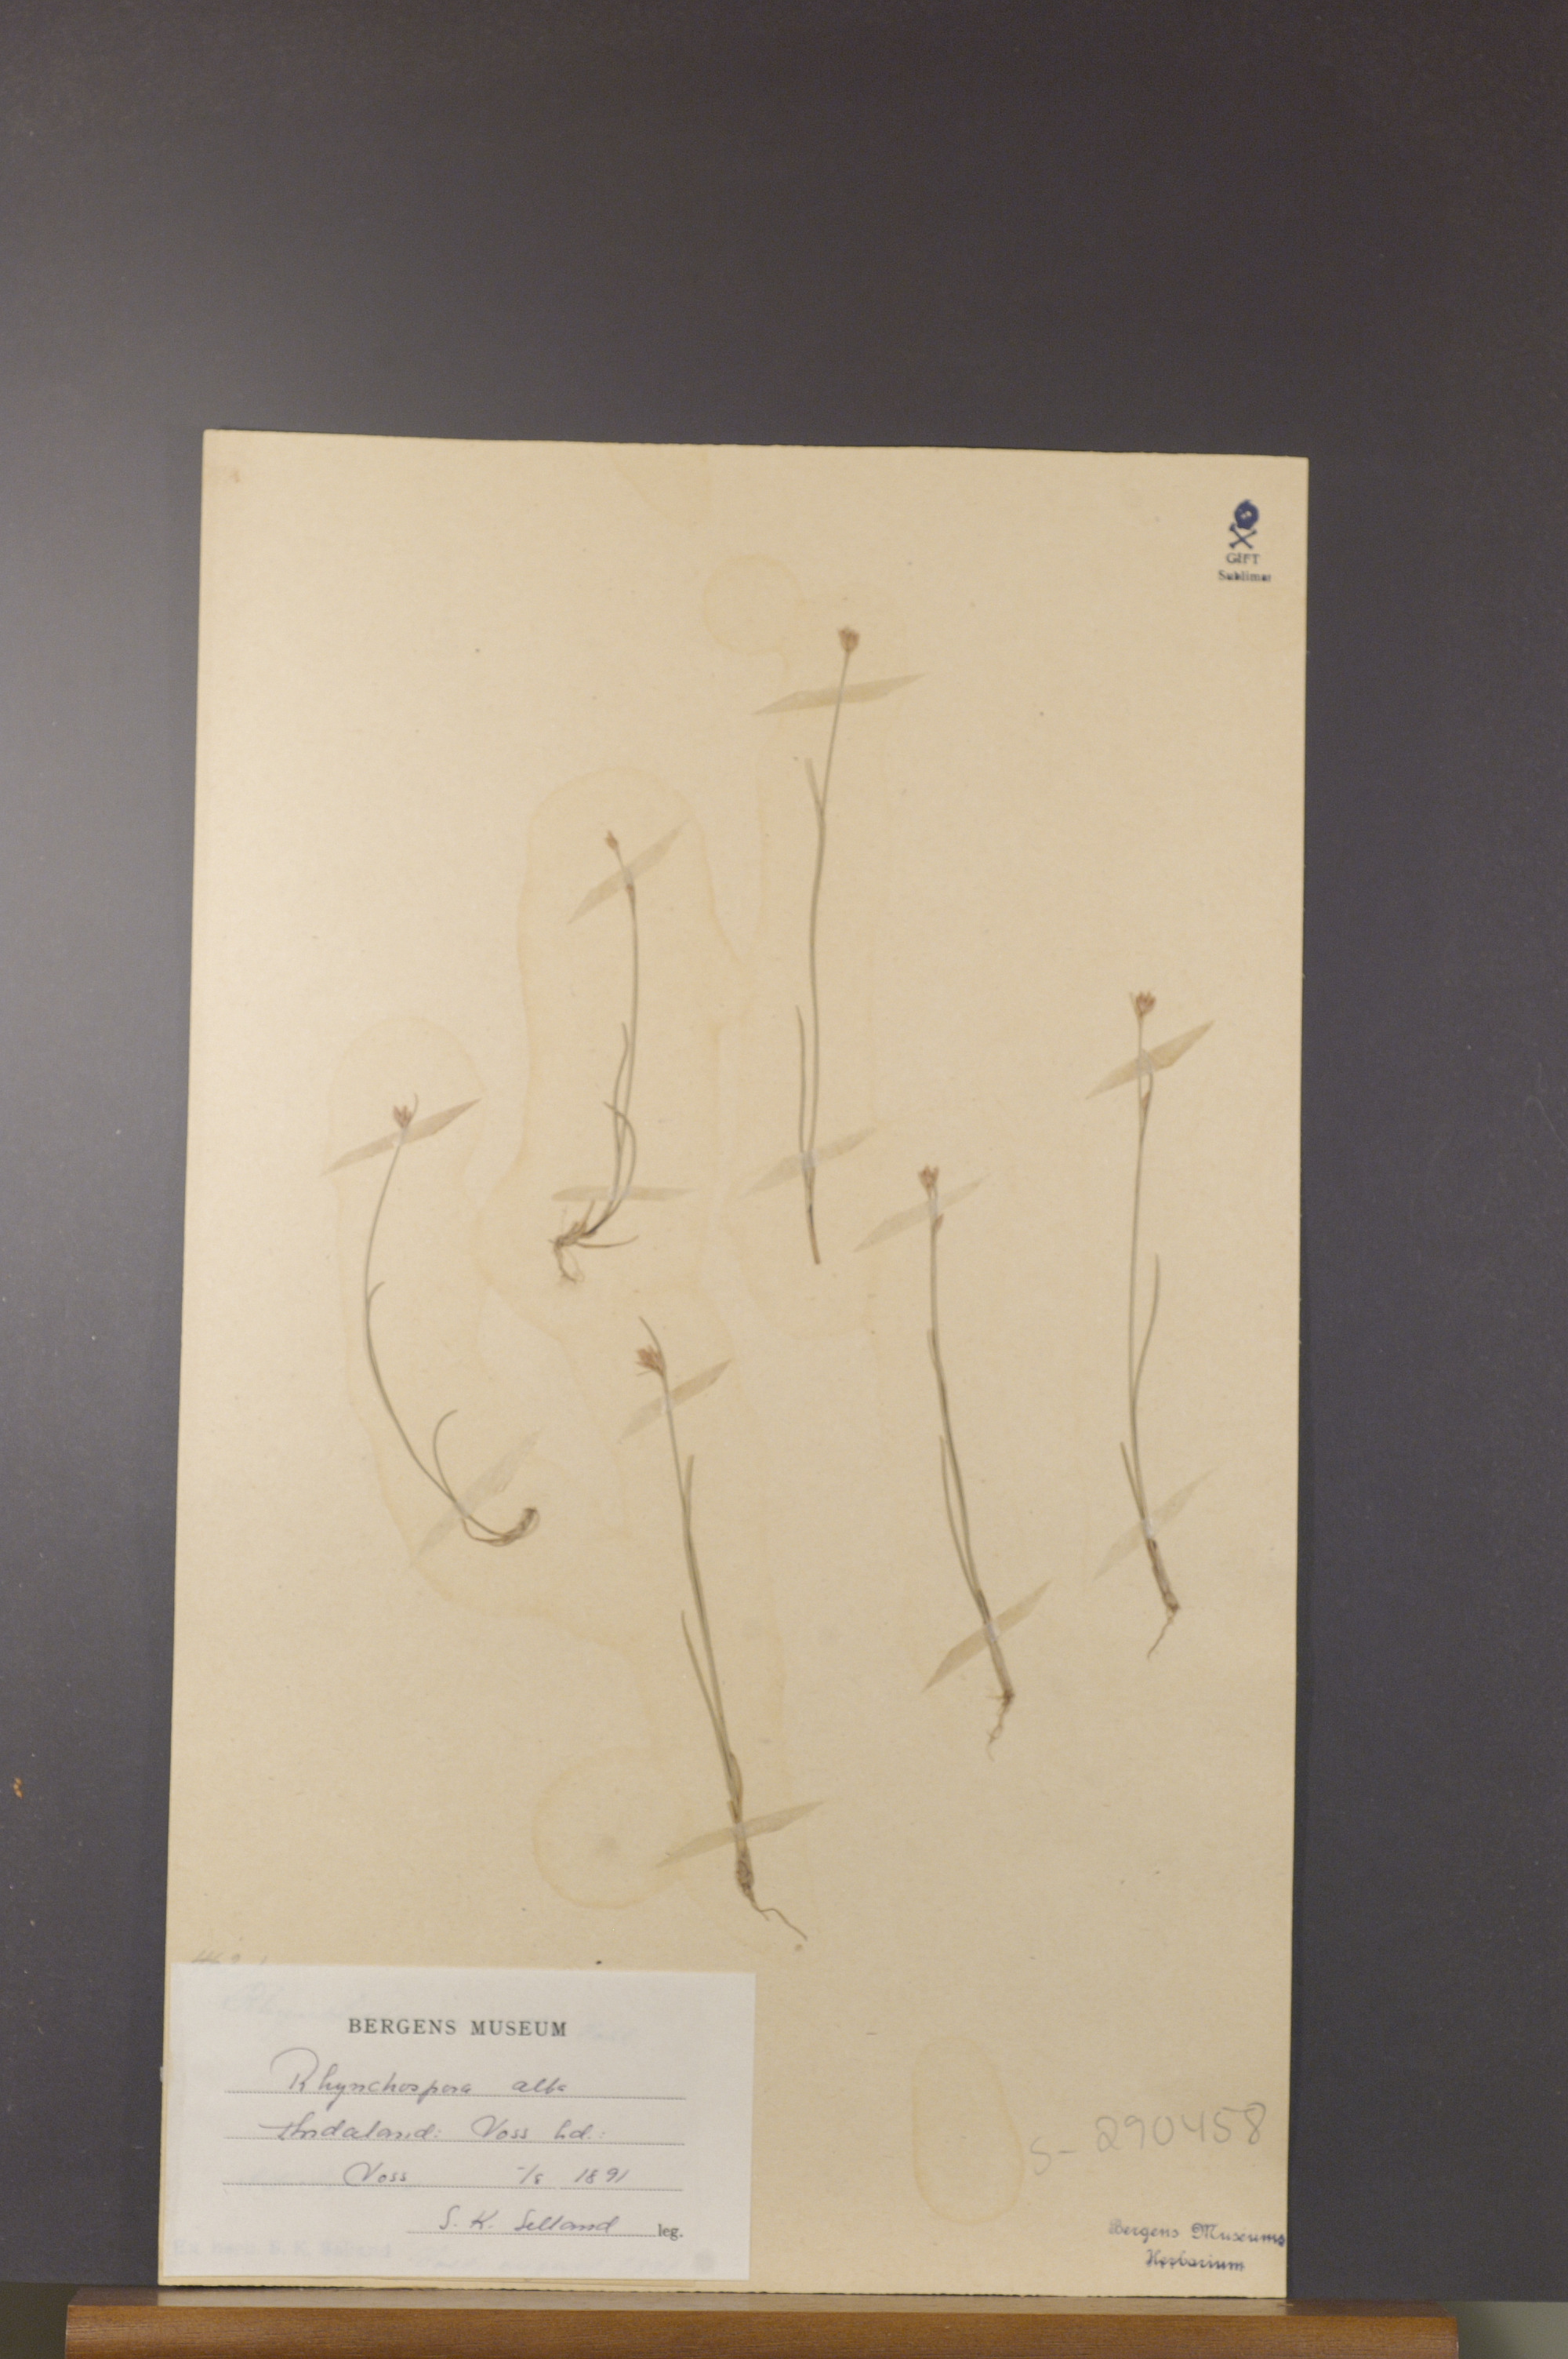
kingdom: Plantae
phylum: Tracheophyta
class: Liliopsida
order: Poales
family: Cyperaceae
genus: Rhynchospora
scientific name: Rhynchospora alba
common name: White beak-sedge
